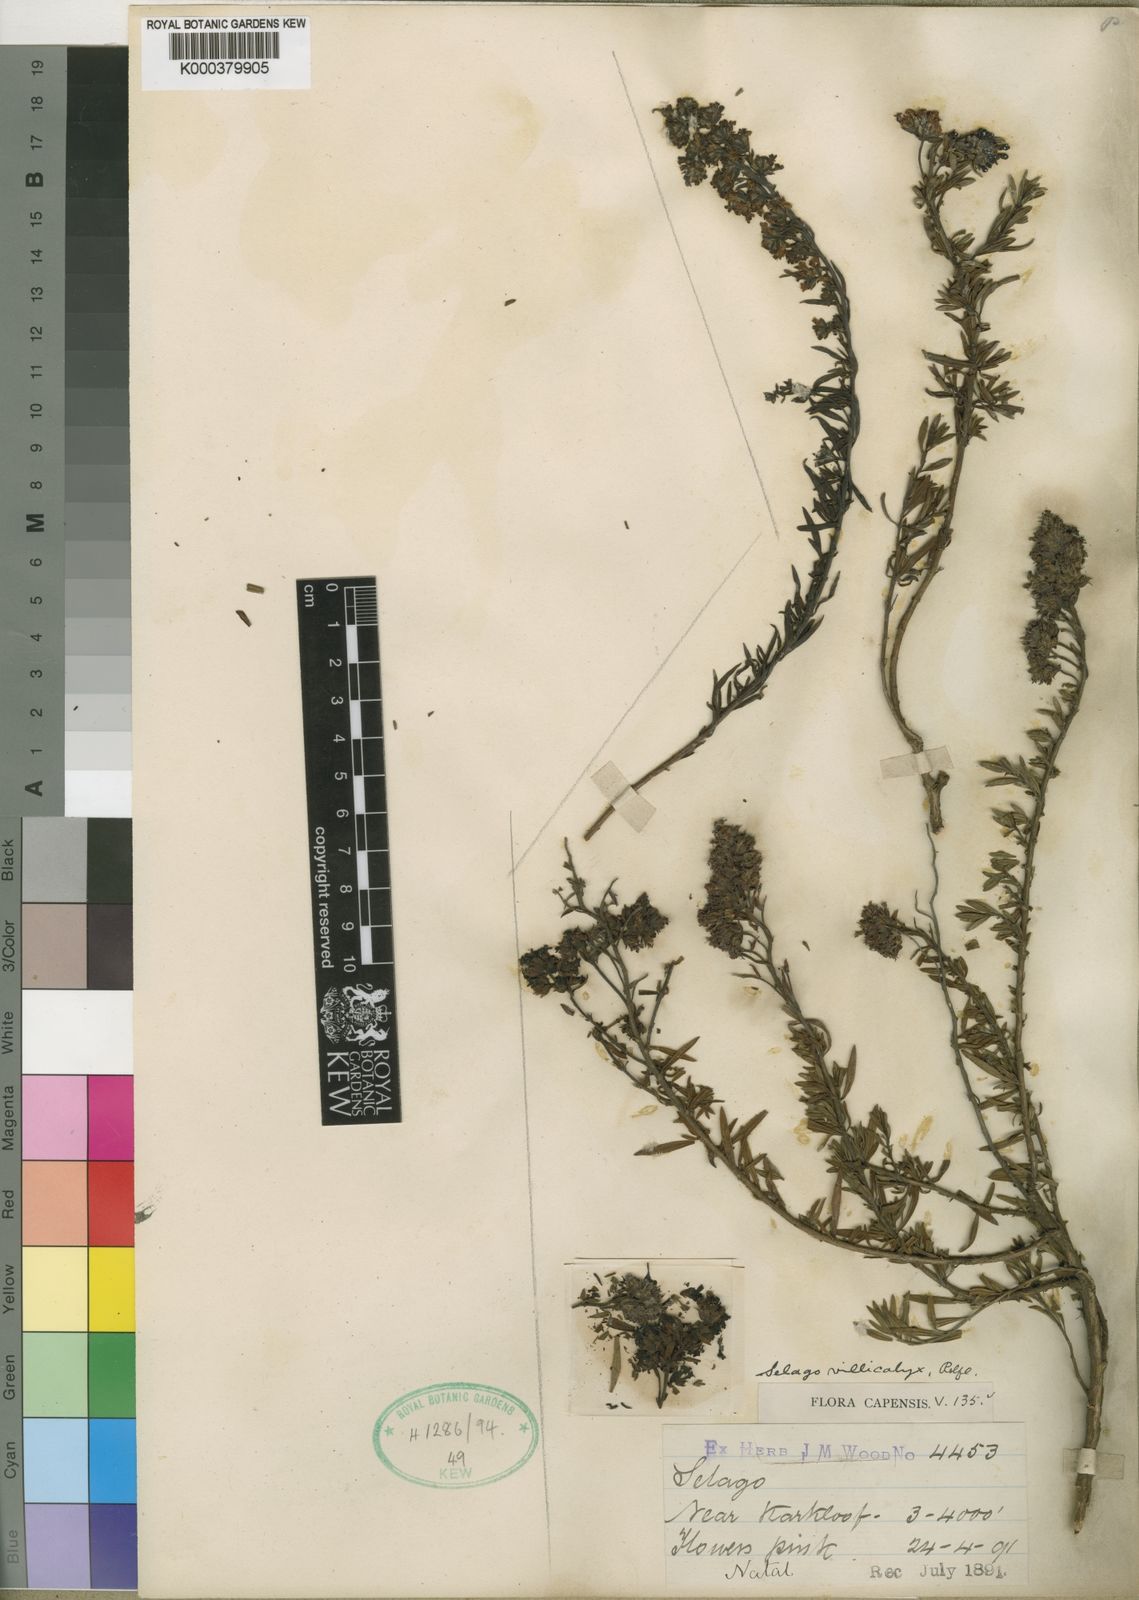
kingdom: Plantae
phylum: Tracheophyta
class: Magnoliopsida
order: Lamiales
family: Scrophulariaceae
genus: Selago
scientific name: Selago pachypoda
